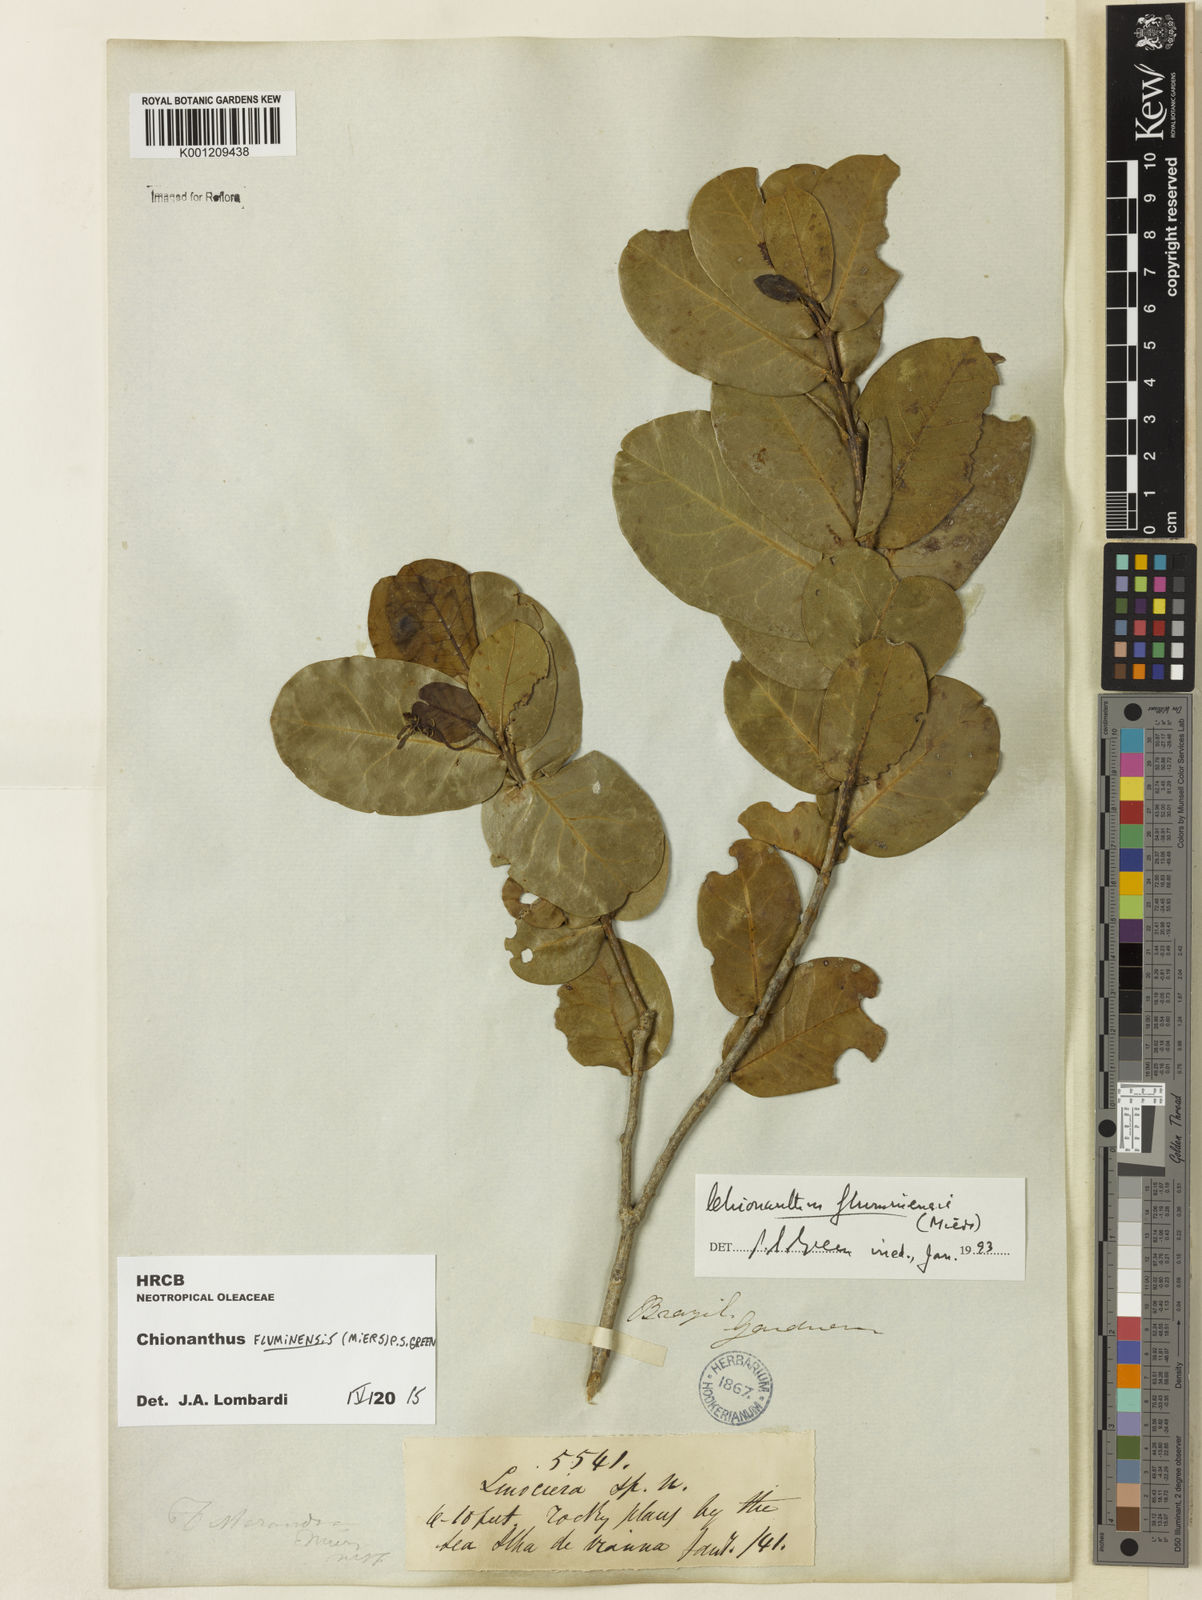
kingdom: Plantae
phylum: Tracheophyta
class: Magnoliopsida
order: Lamiales
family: Oleaceae
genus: Chionanthus
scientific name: Chionanthus fluminensis
